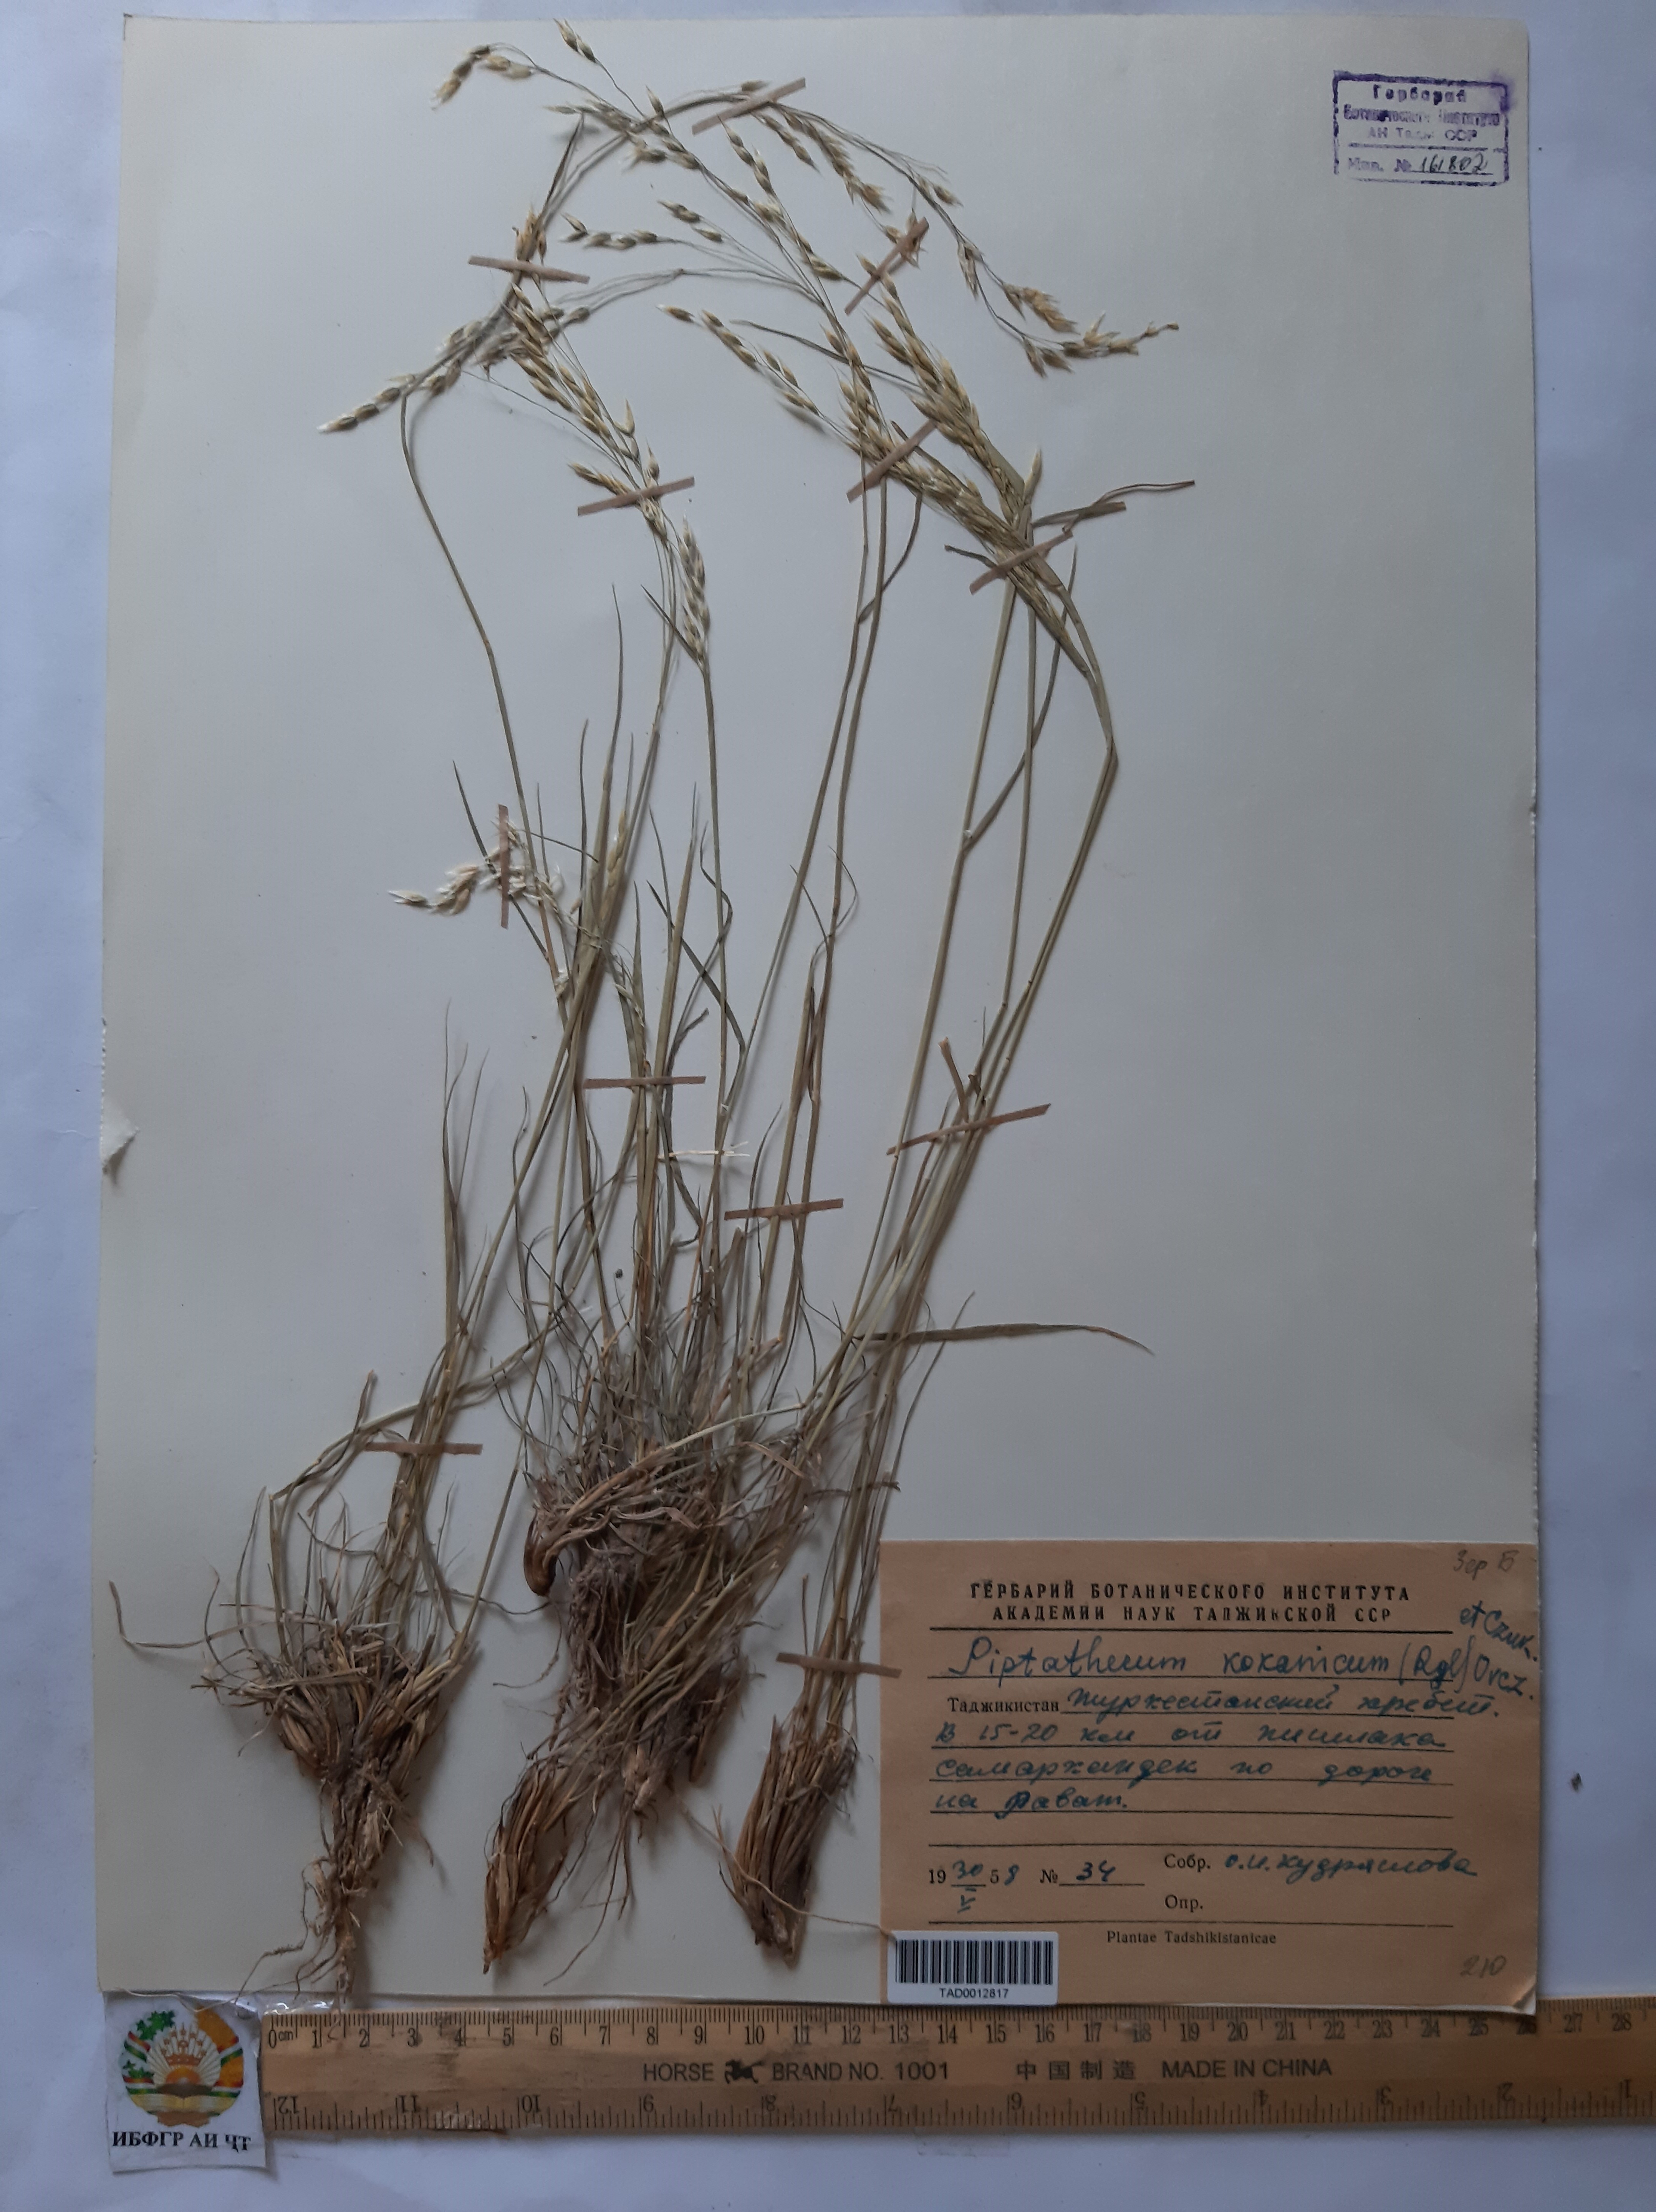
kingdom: Plantae
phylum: Tracheophyta
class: Liliopsida
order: Poales
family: Poaceae
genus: Piptatherum
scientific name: Piptatherum songaricum
